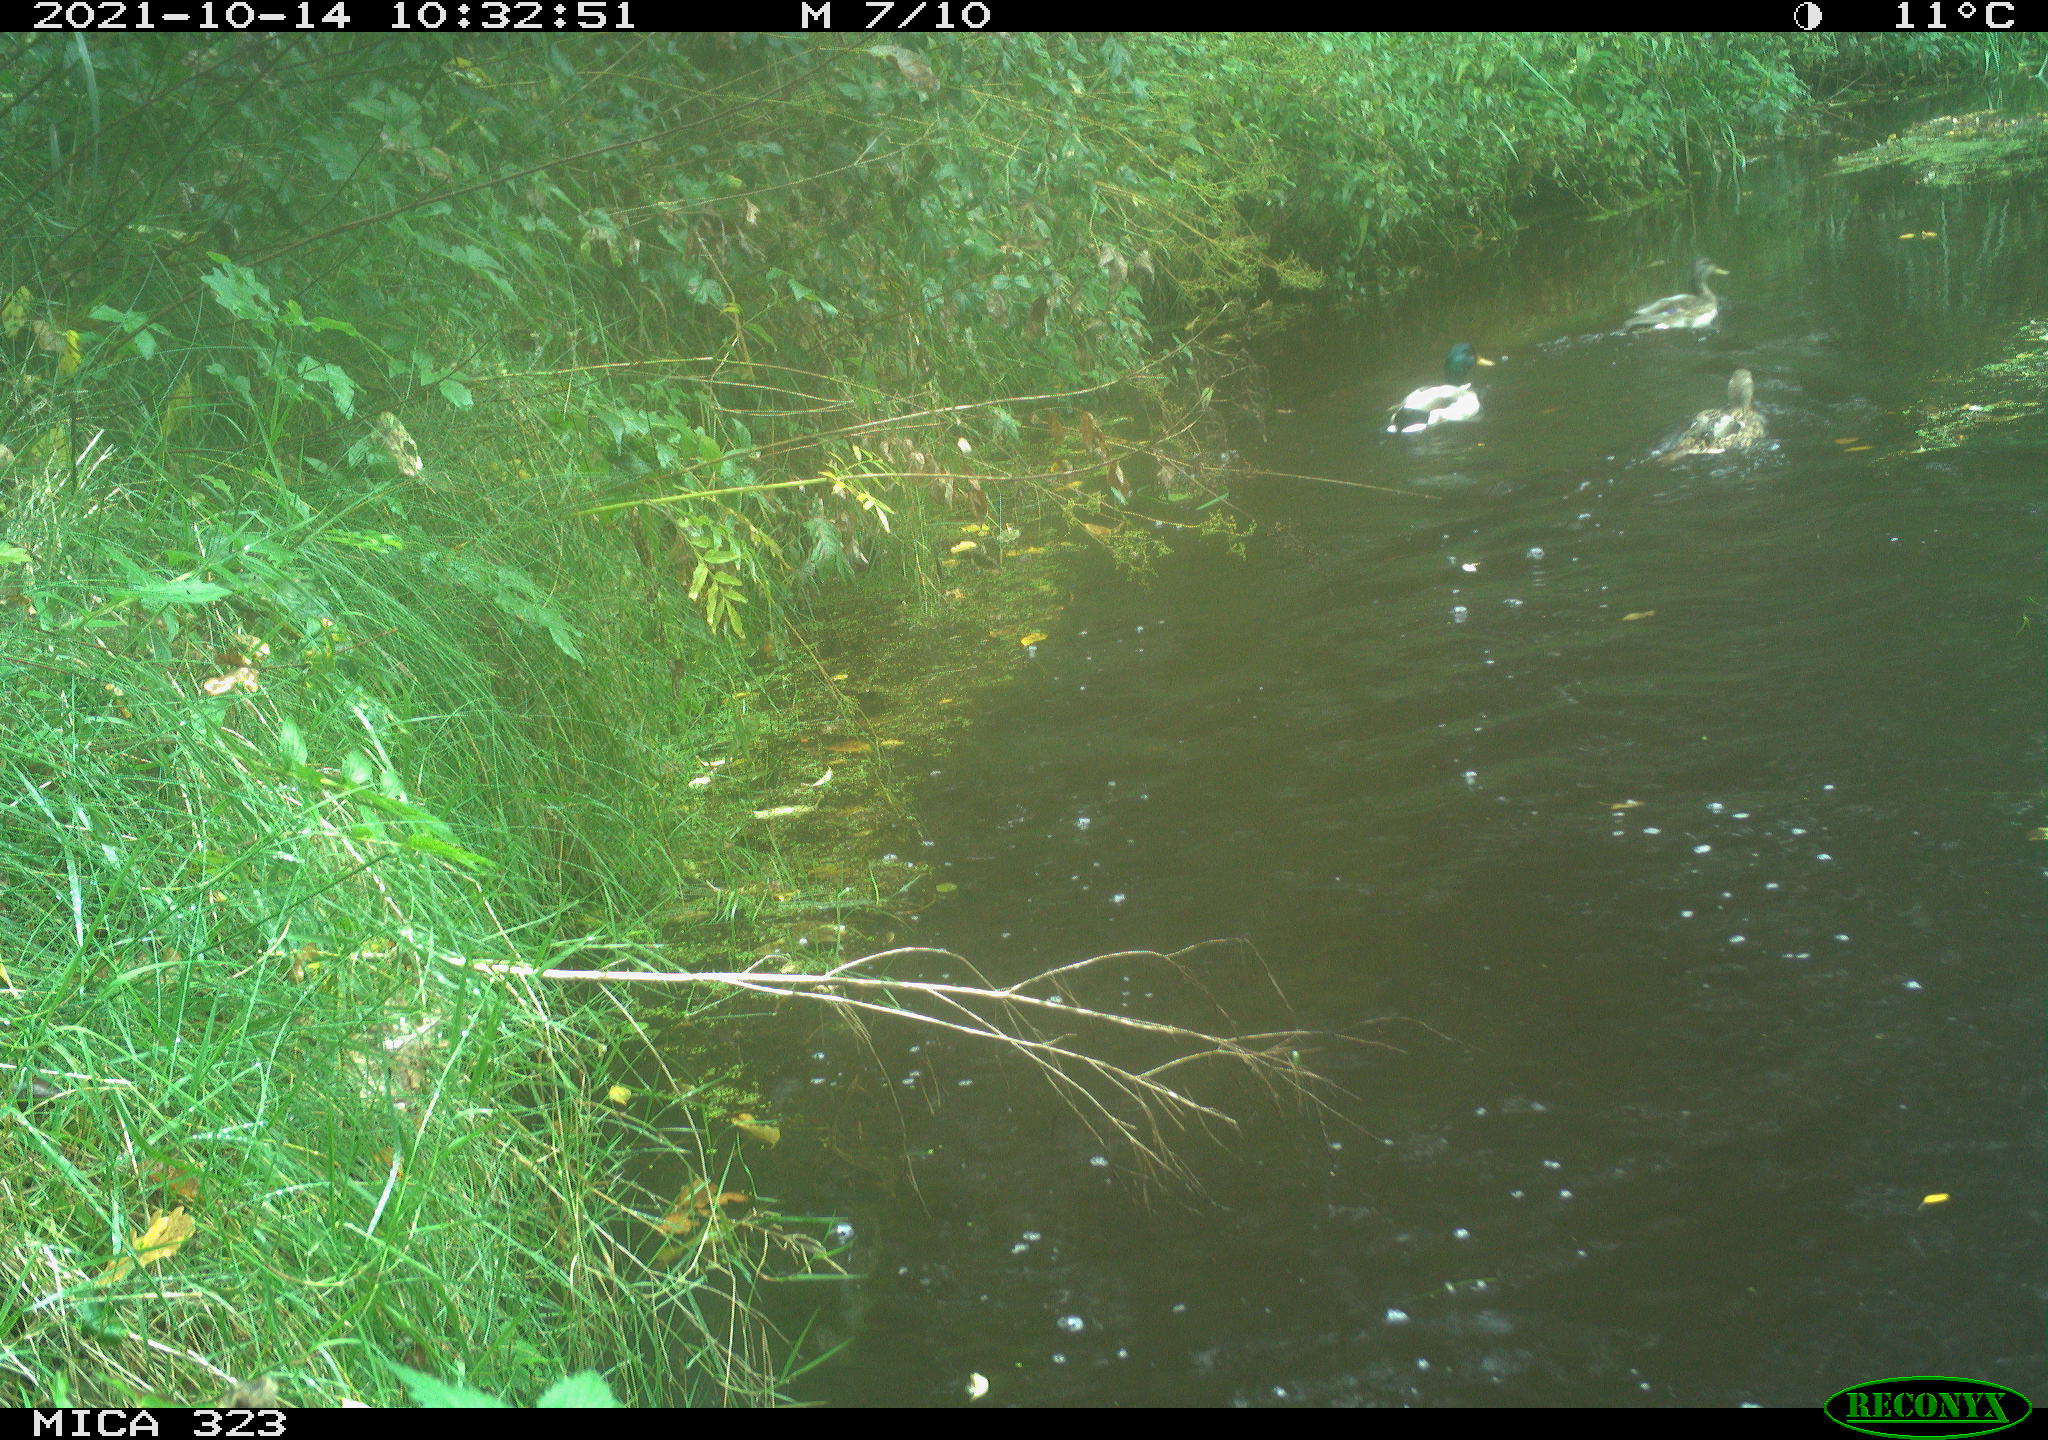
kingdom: Animalia
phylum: Chordata
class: Aves
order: Anseriformes
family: Anatidae
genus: Anas
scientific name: Anas platyrhynchos
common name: Mallard
